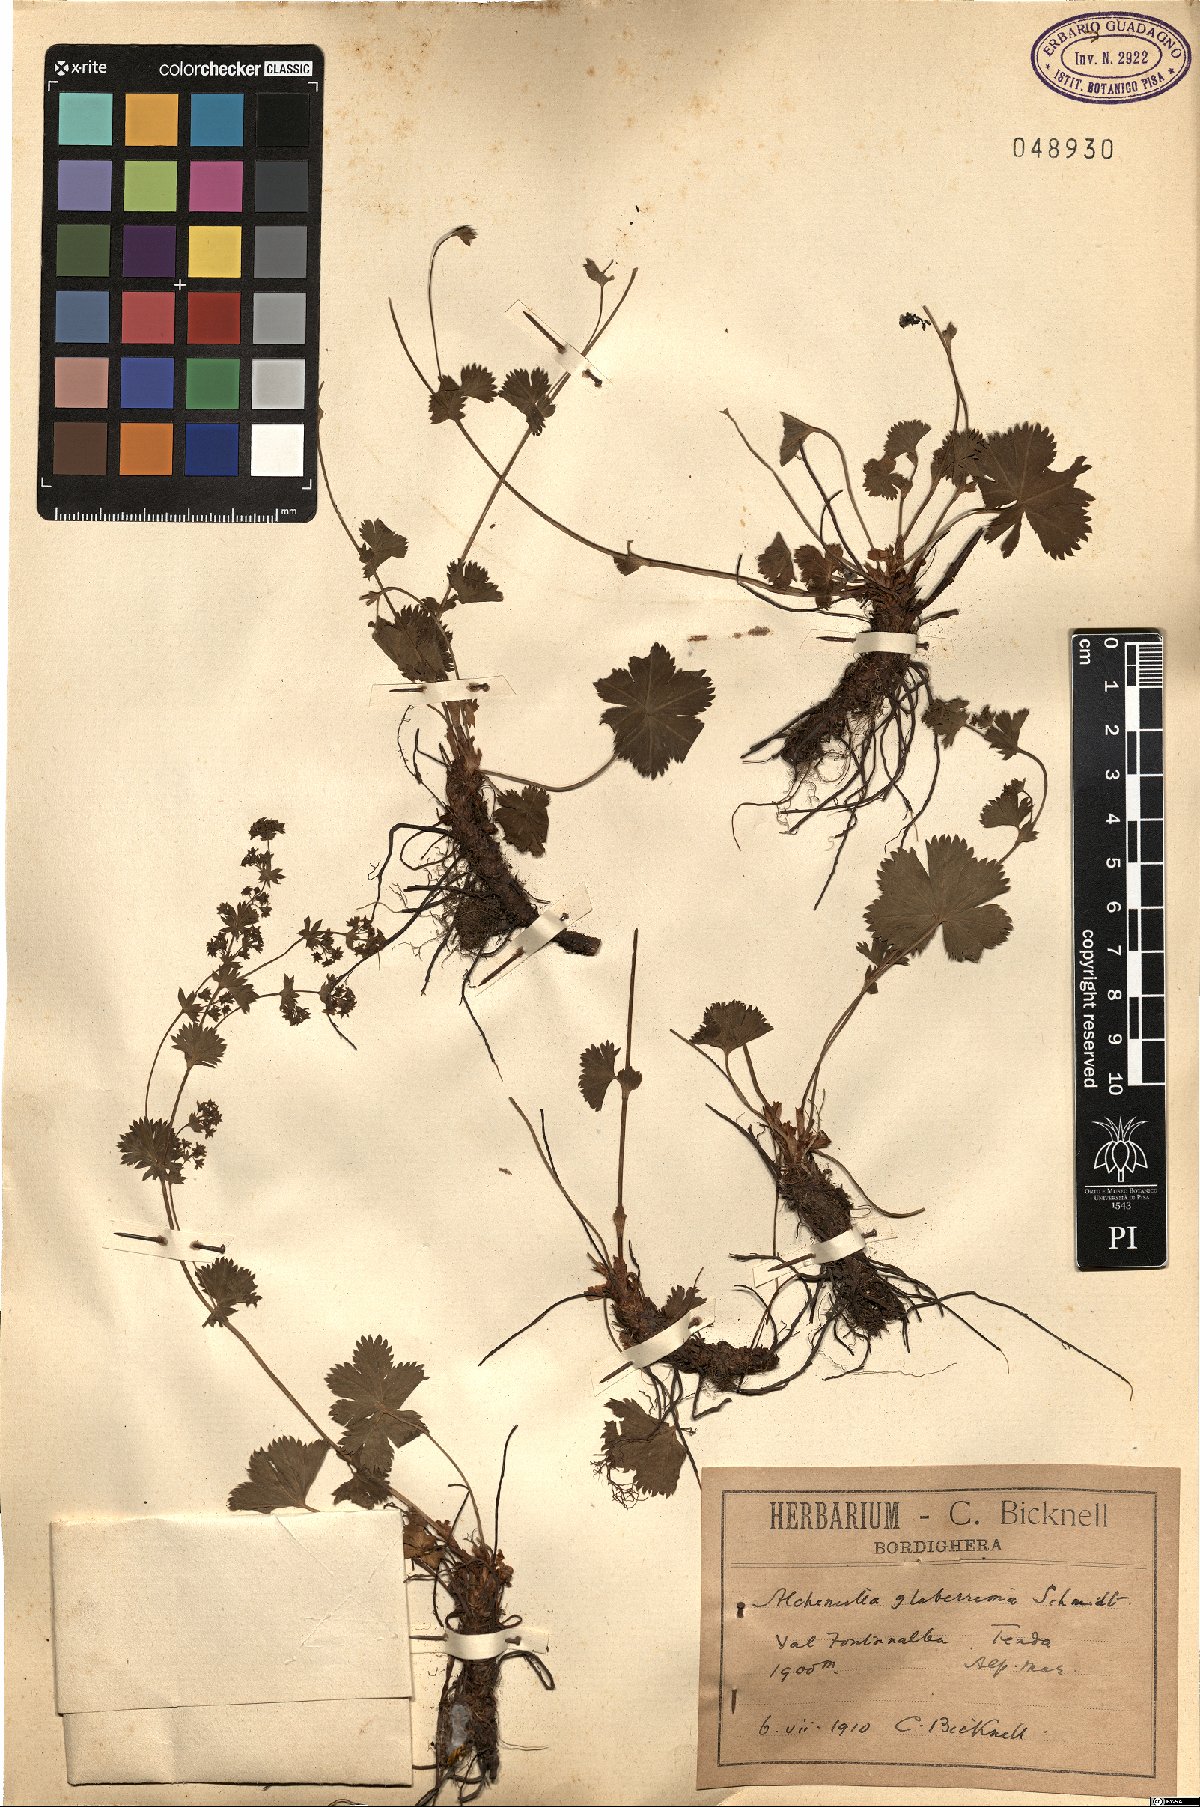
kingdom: Plantae
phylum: Tracheophyta
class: Magnoliopsida
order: Rosales
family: Rosaceae
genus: Alchemilla
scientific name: Alchemilla glaberrima
